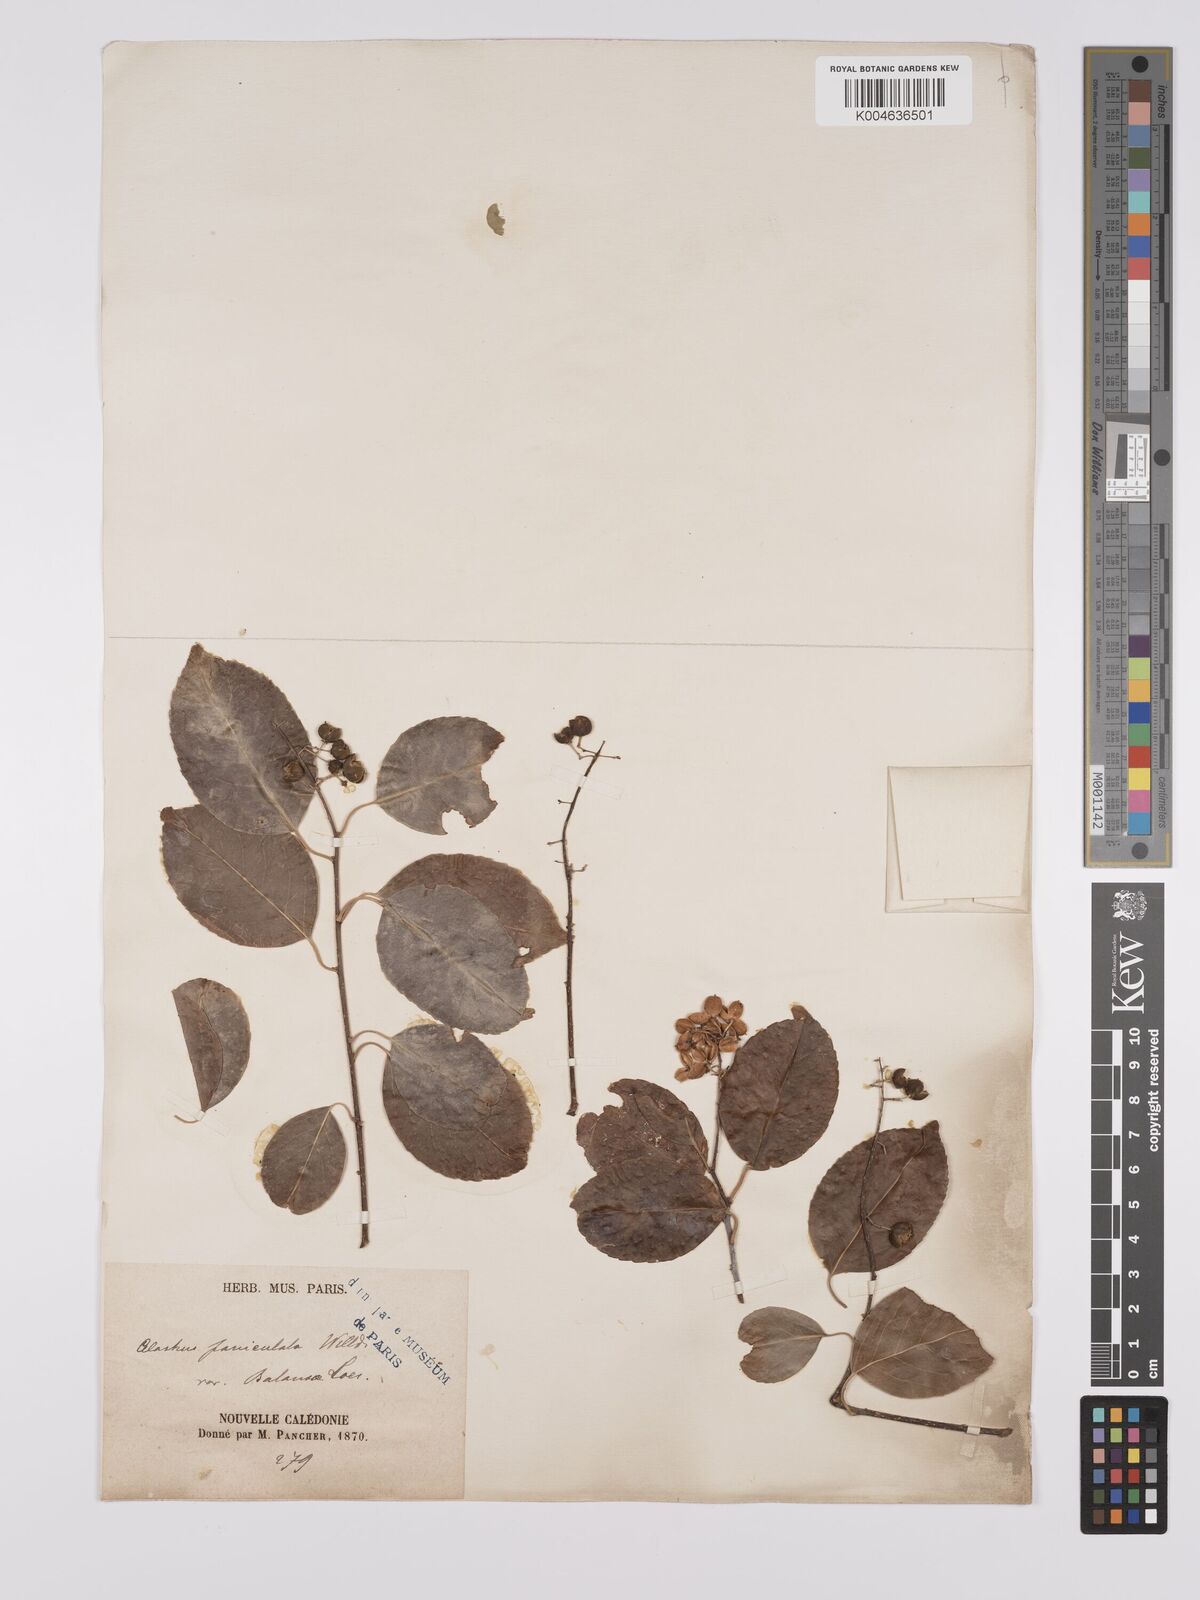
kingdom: Plantae
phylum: Tracheophyta
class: Magnoliopsida
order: Celastrales
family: Celastraceae
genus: Celastrus
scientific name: Celastrus paniculatus
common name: Oriental bittersweet; staff vine
